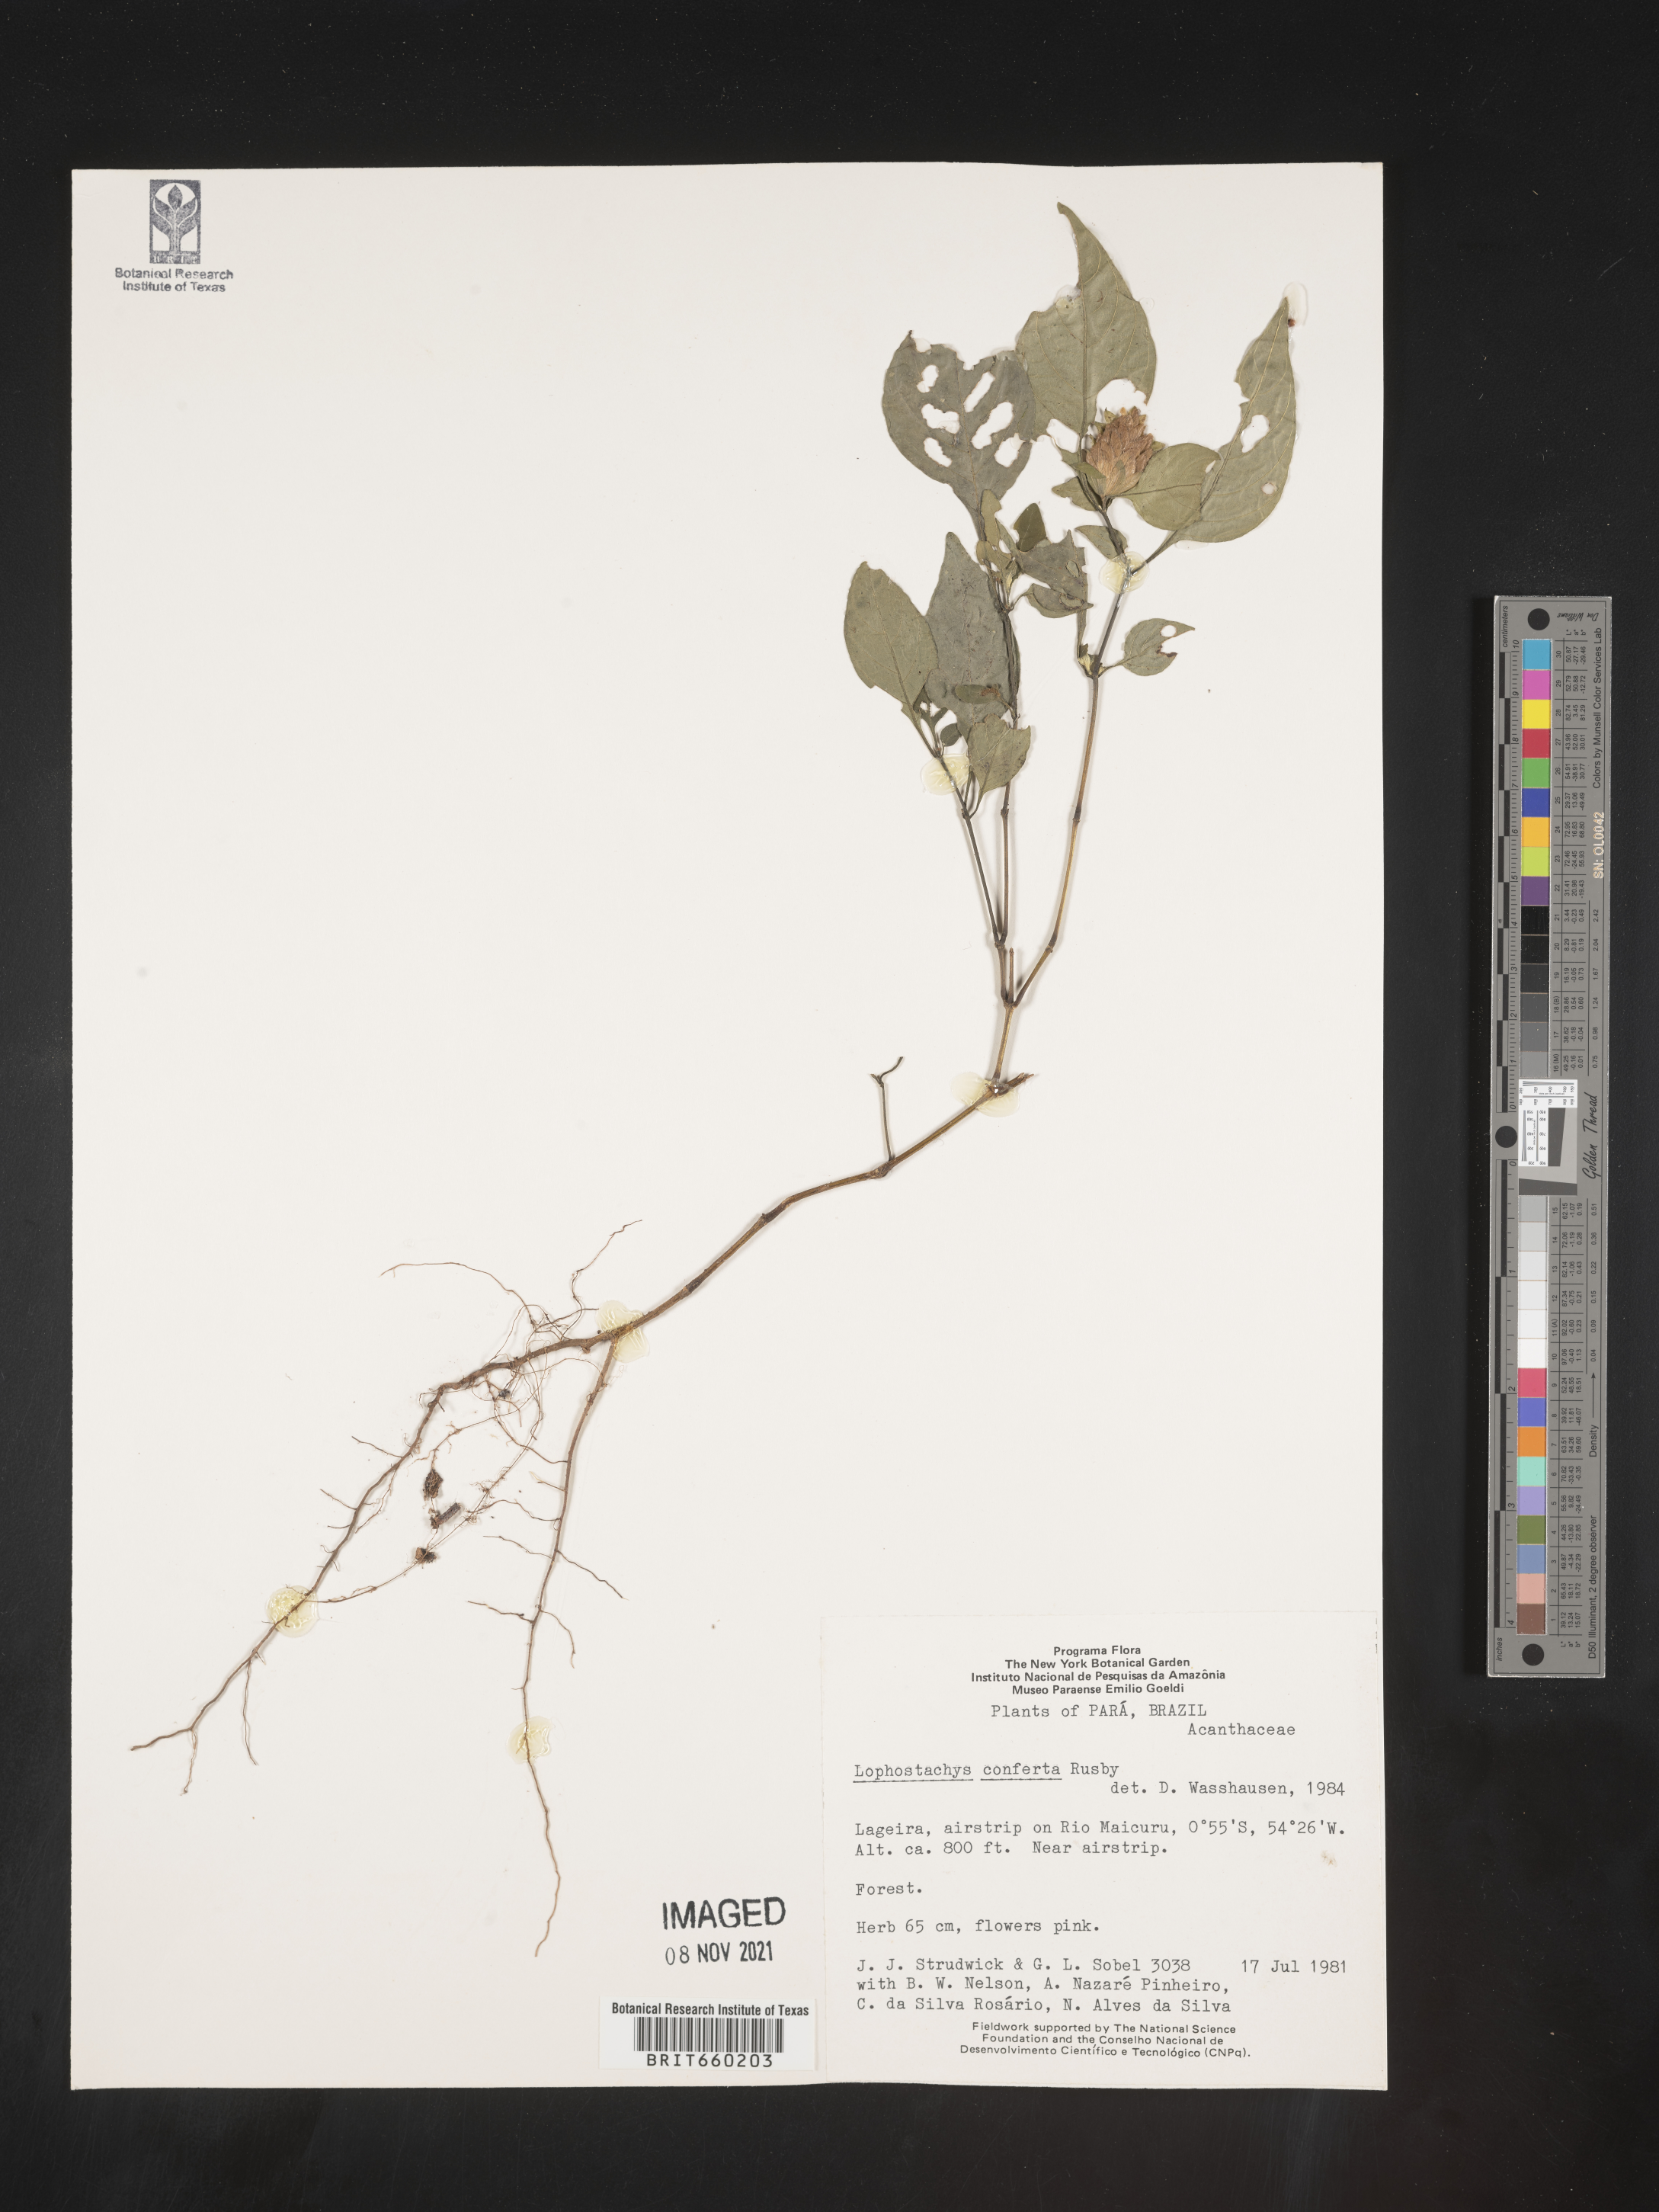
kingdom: Plantae
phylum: Tracheophyta
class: Magnoliopsida
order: Lamiales
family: Acanthaceae
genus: Lepidagathis
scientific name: Lepidagathis
